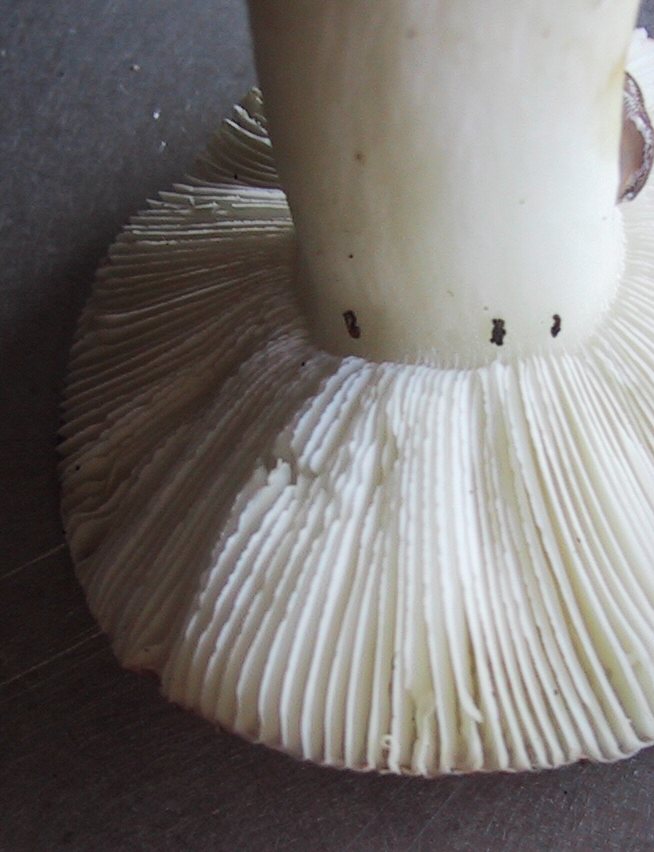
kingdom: Fungi
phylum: Basidiomycota
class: Agaricomycetes
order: Russulales
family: Russulaceae
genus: Russula
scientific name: Russula fragilis
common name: Fragile brittlegill
